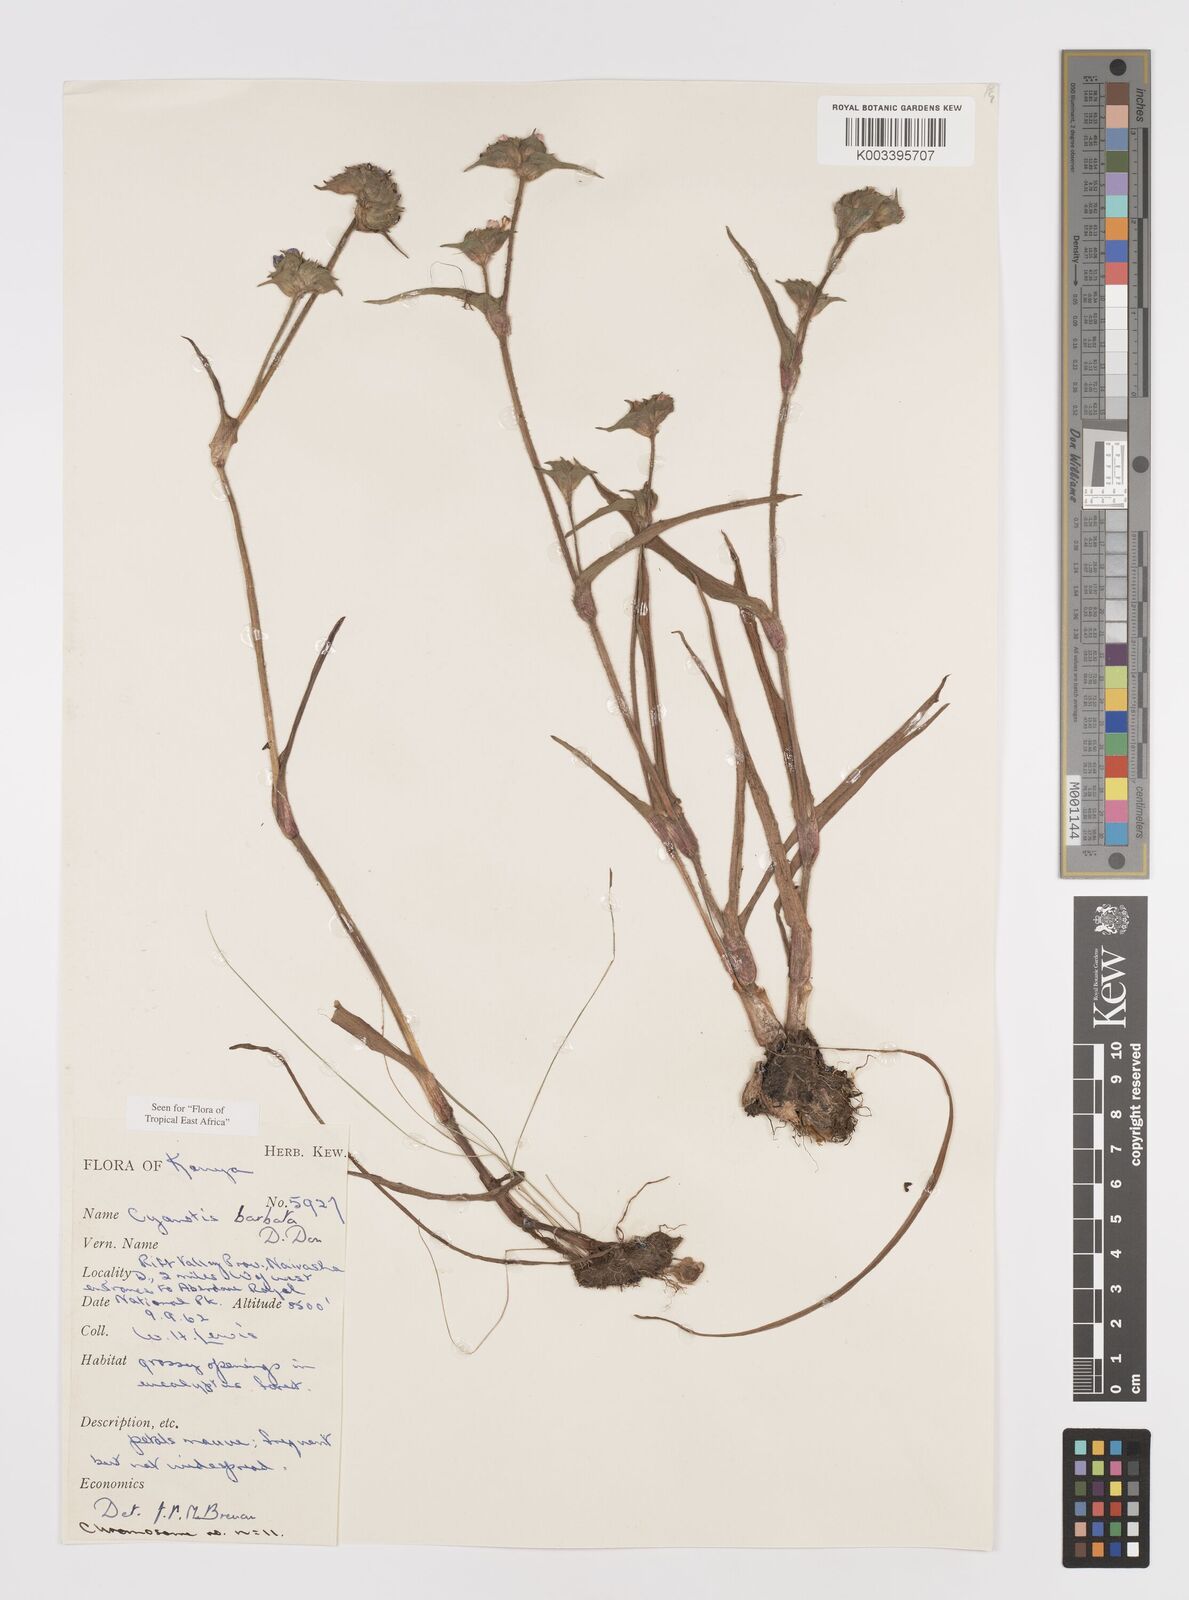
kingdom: Plantae
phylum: Tracheophyta
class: Liliopsida
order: Commelinales
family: Commelinaceae
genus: Cyanotis
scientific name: Cyanotis vaga
